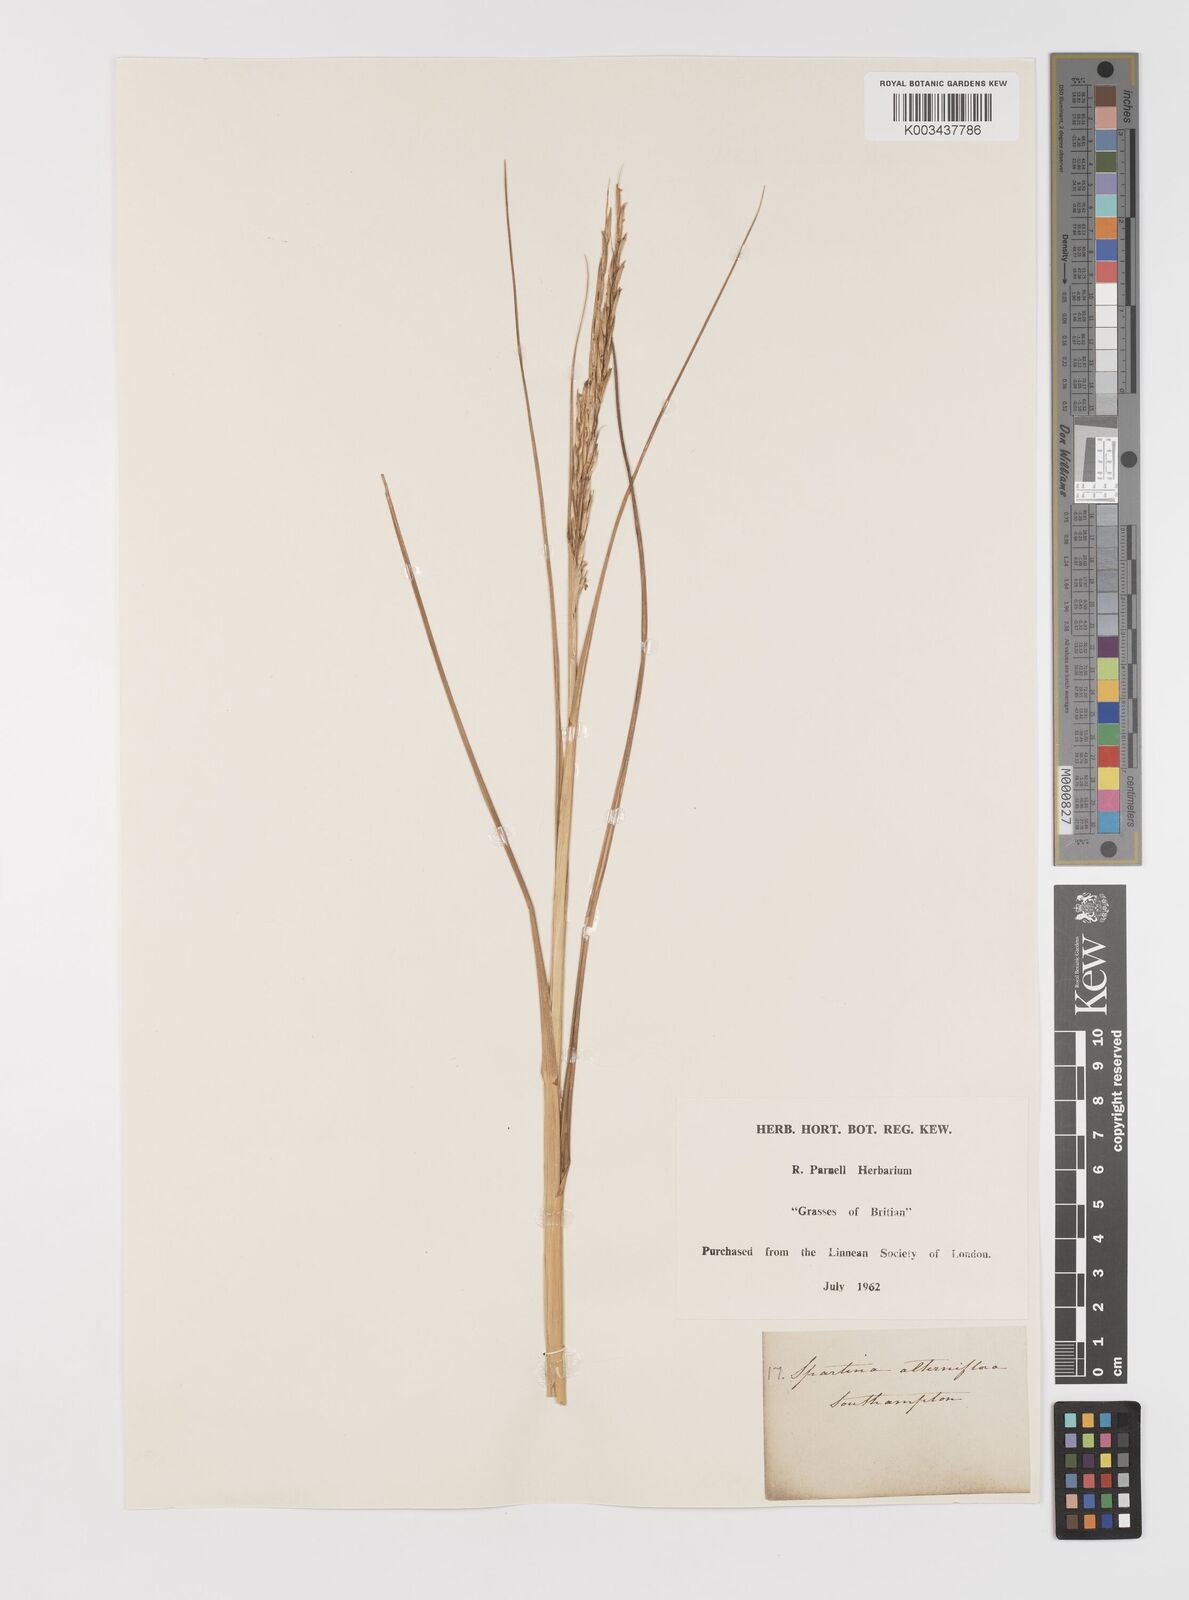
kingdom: Plantae
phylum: Tracheophyta
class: Liliopsida
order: Poales
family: Poaceae
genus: Sporobolus
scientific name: Sporobolus alterniflorus
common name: Atlantic cordgrass
